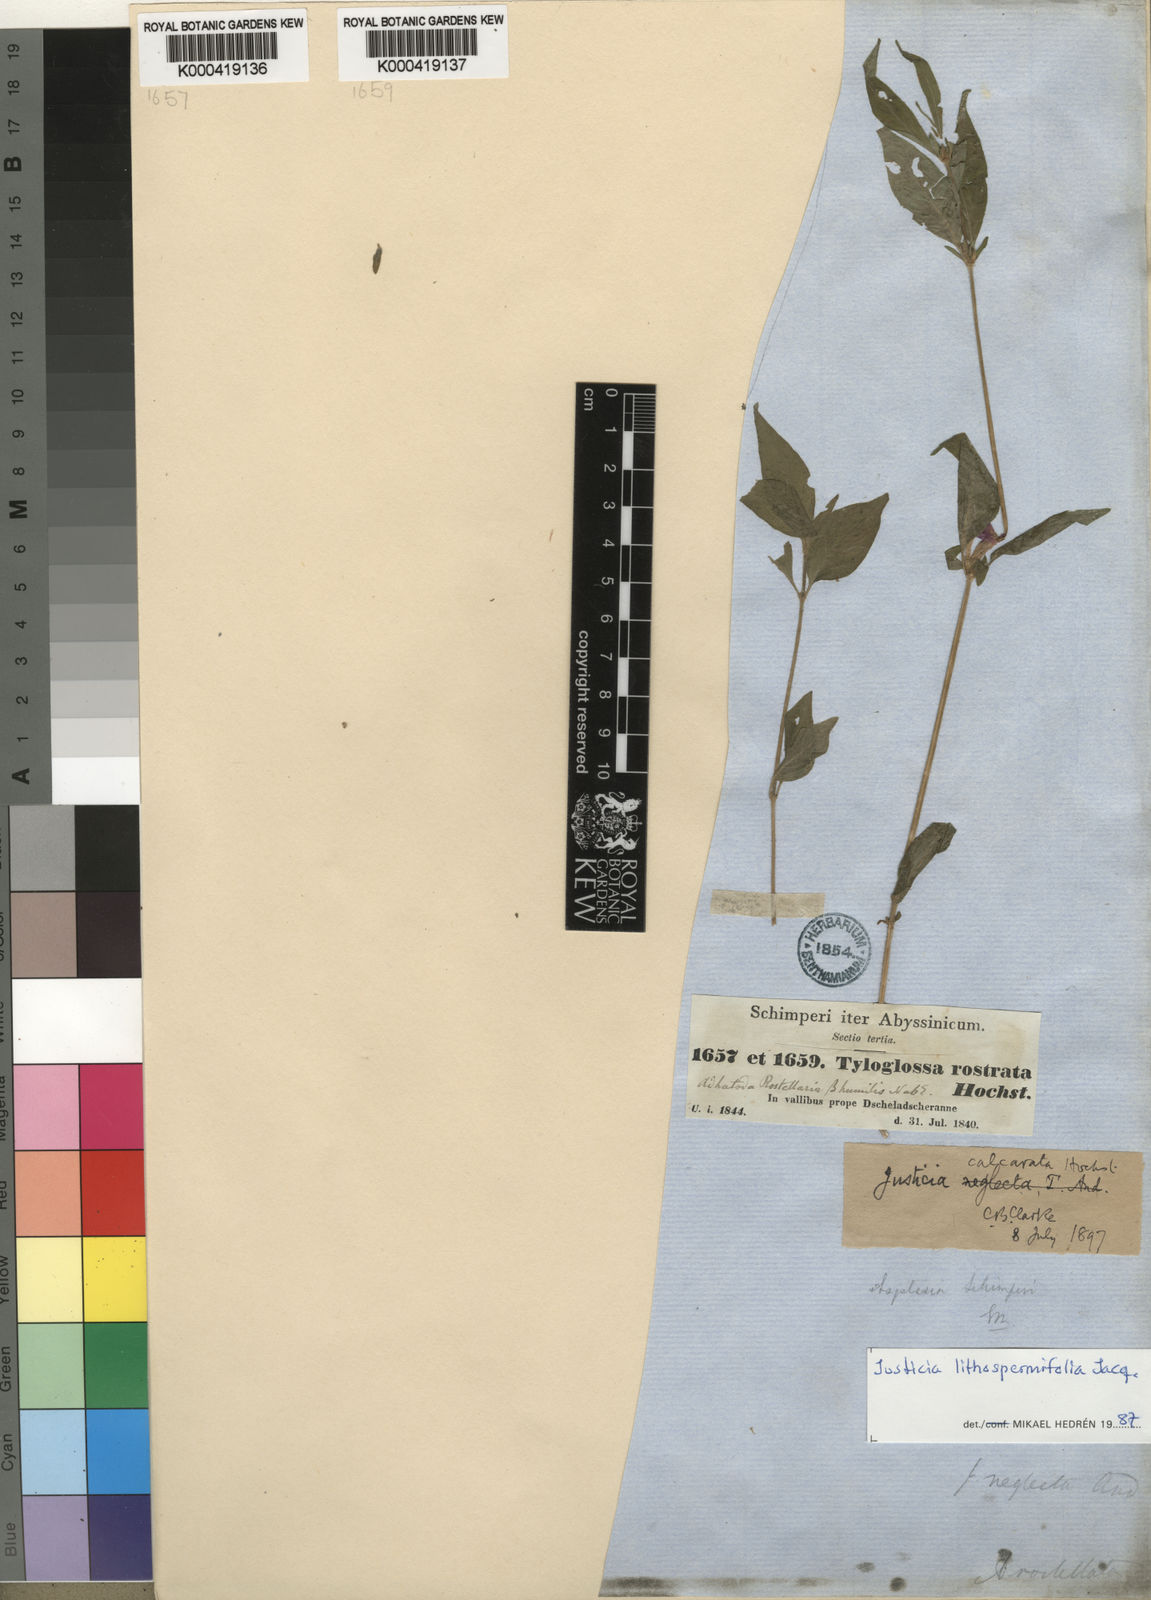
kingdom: Plantae
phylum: Tracheophyta
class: Magnoliopsida
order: Lamiales
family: Acanthaceae
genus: Justicia
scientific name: Justicia ladanoides
